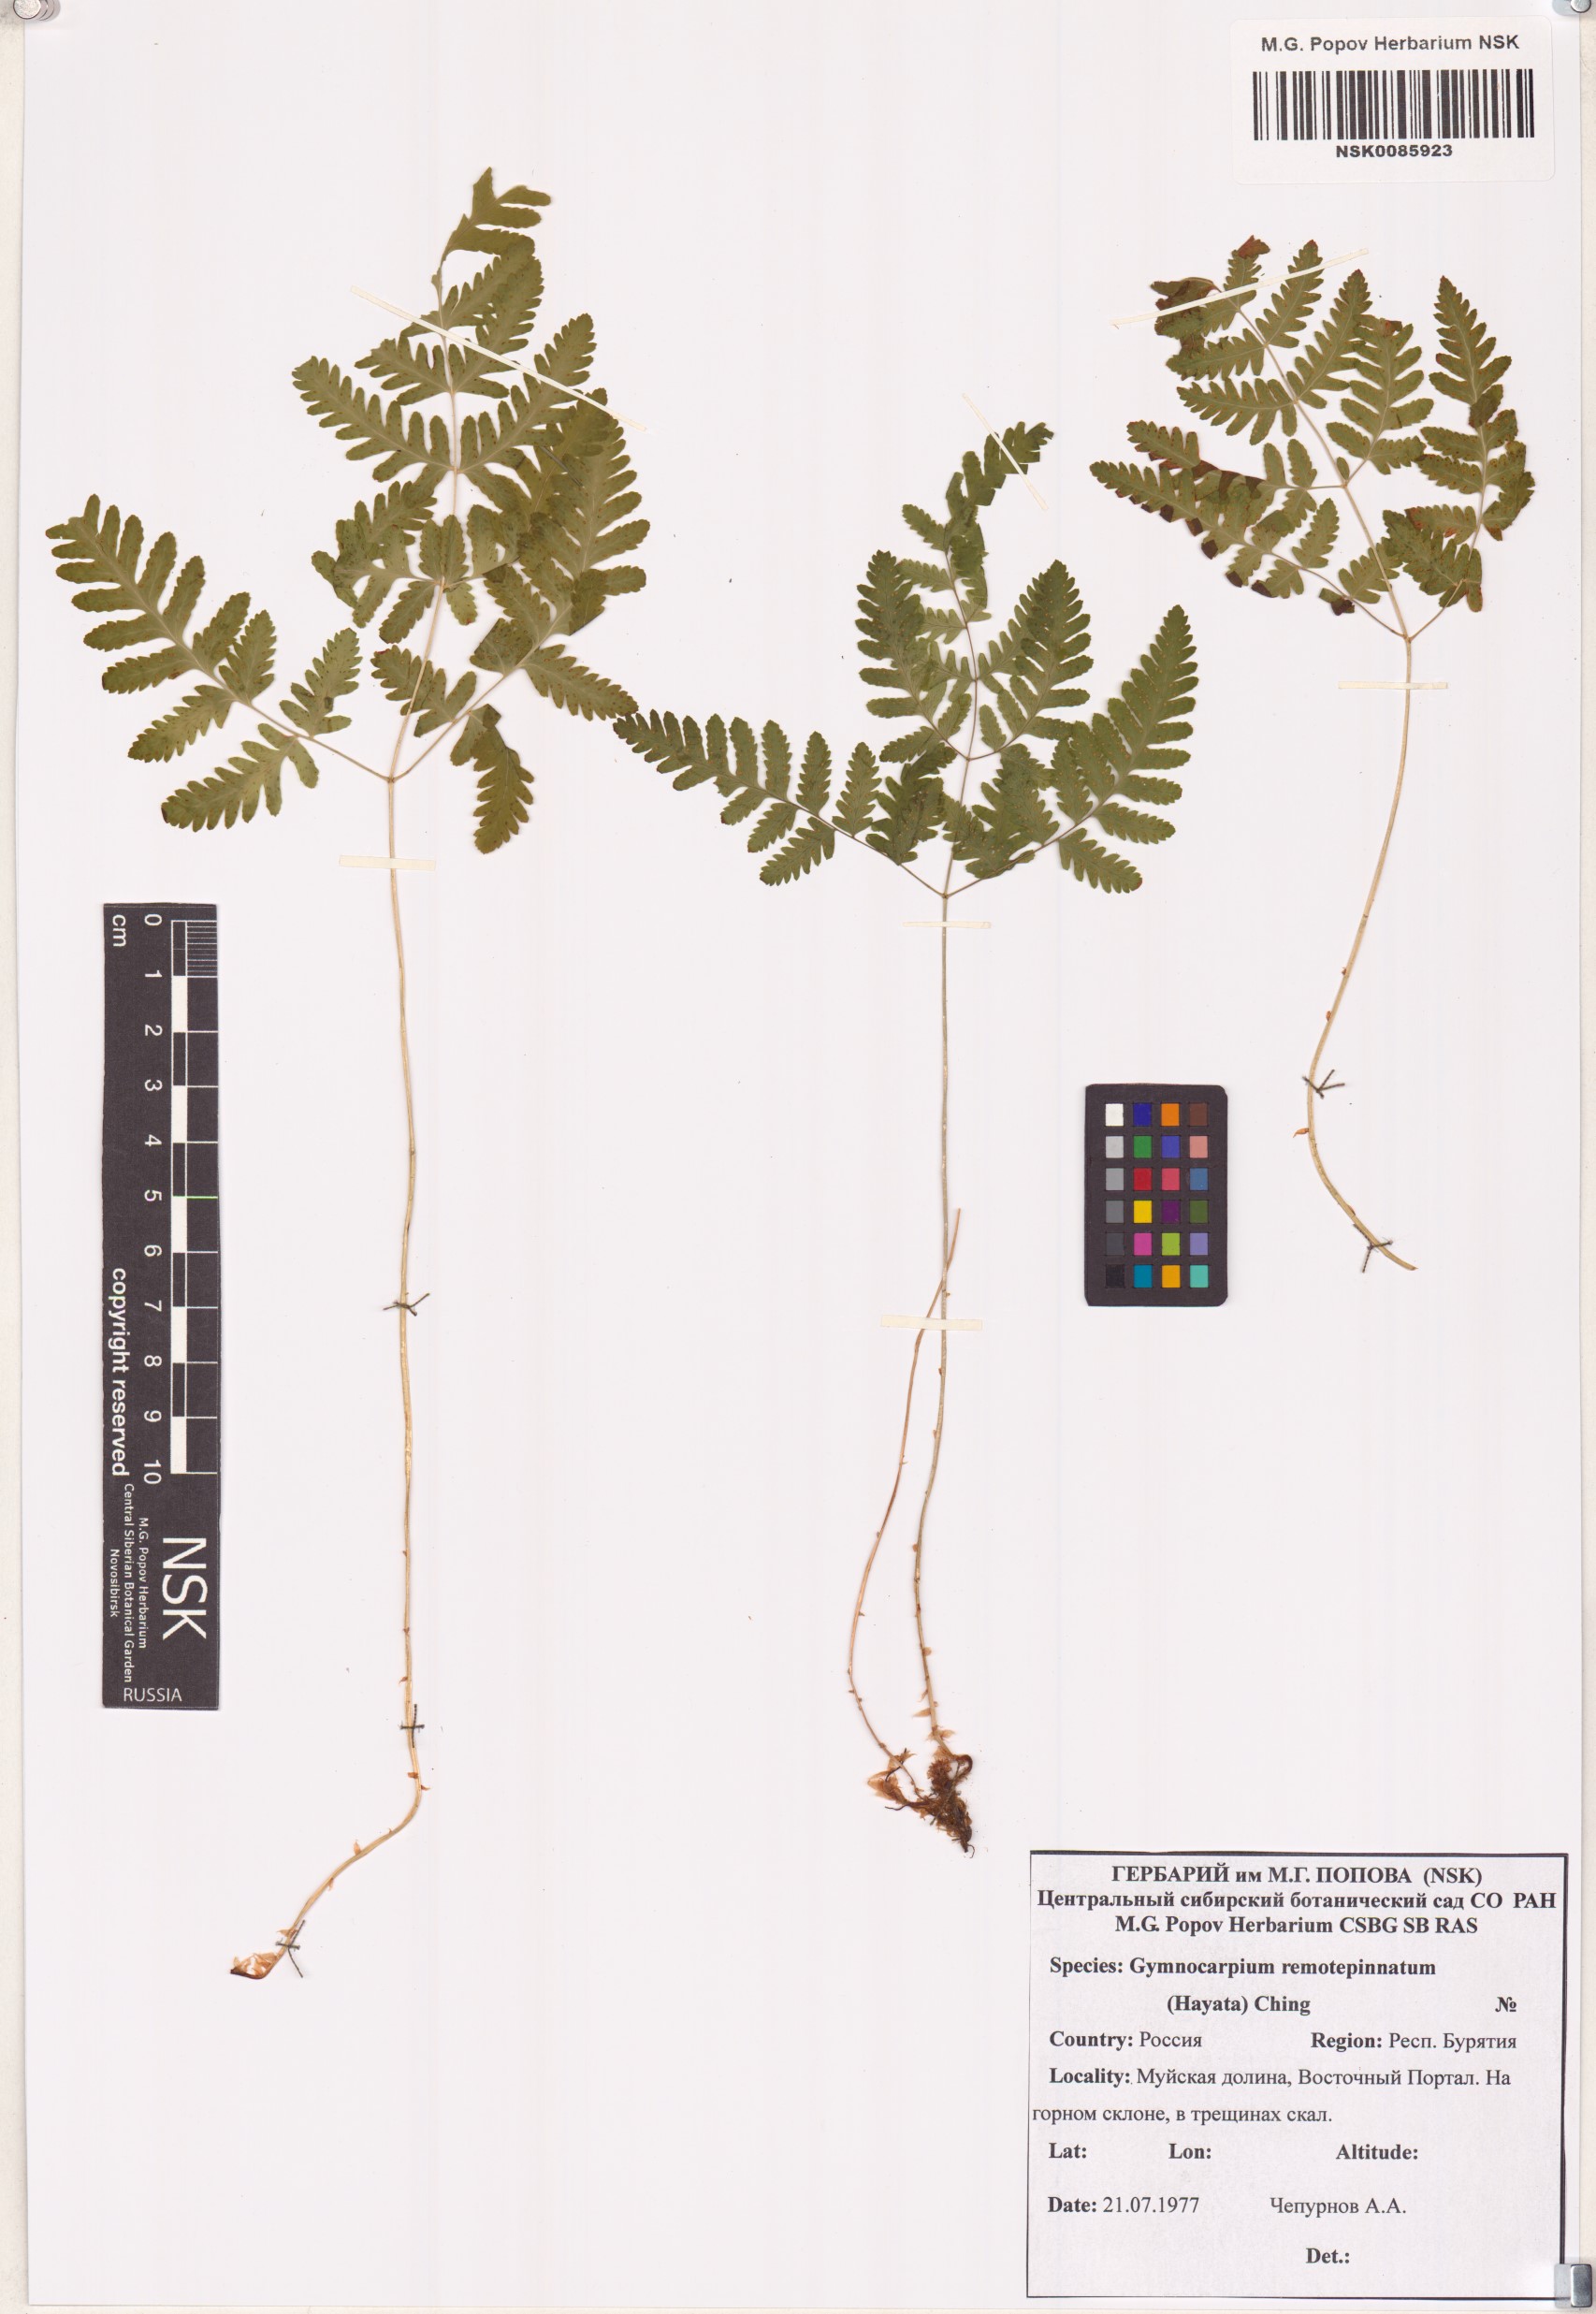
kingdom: Plantae
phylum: Tracheophyta
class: Polypodiopsida
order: Polypodiales
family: Cystopteridaceae
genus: Gymnocarpium
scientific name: Gymnocarpium remotepinnatum
